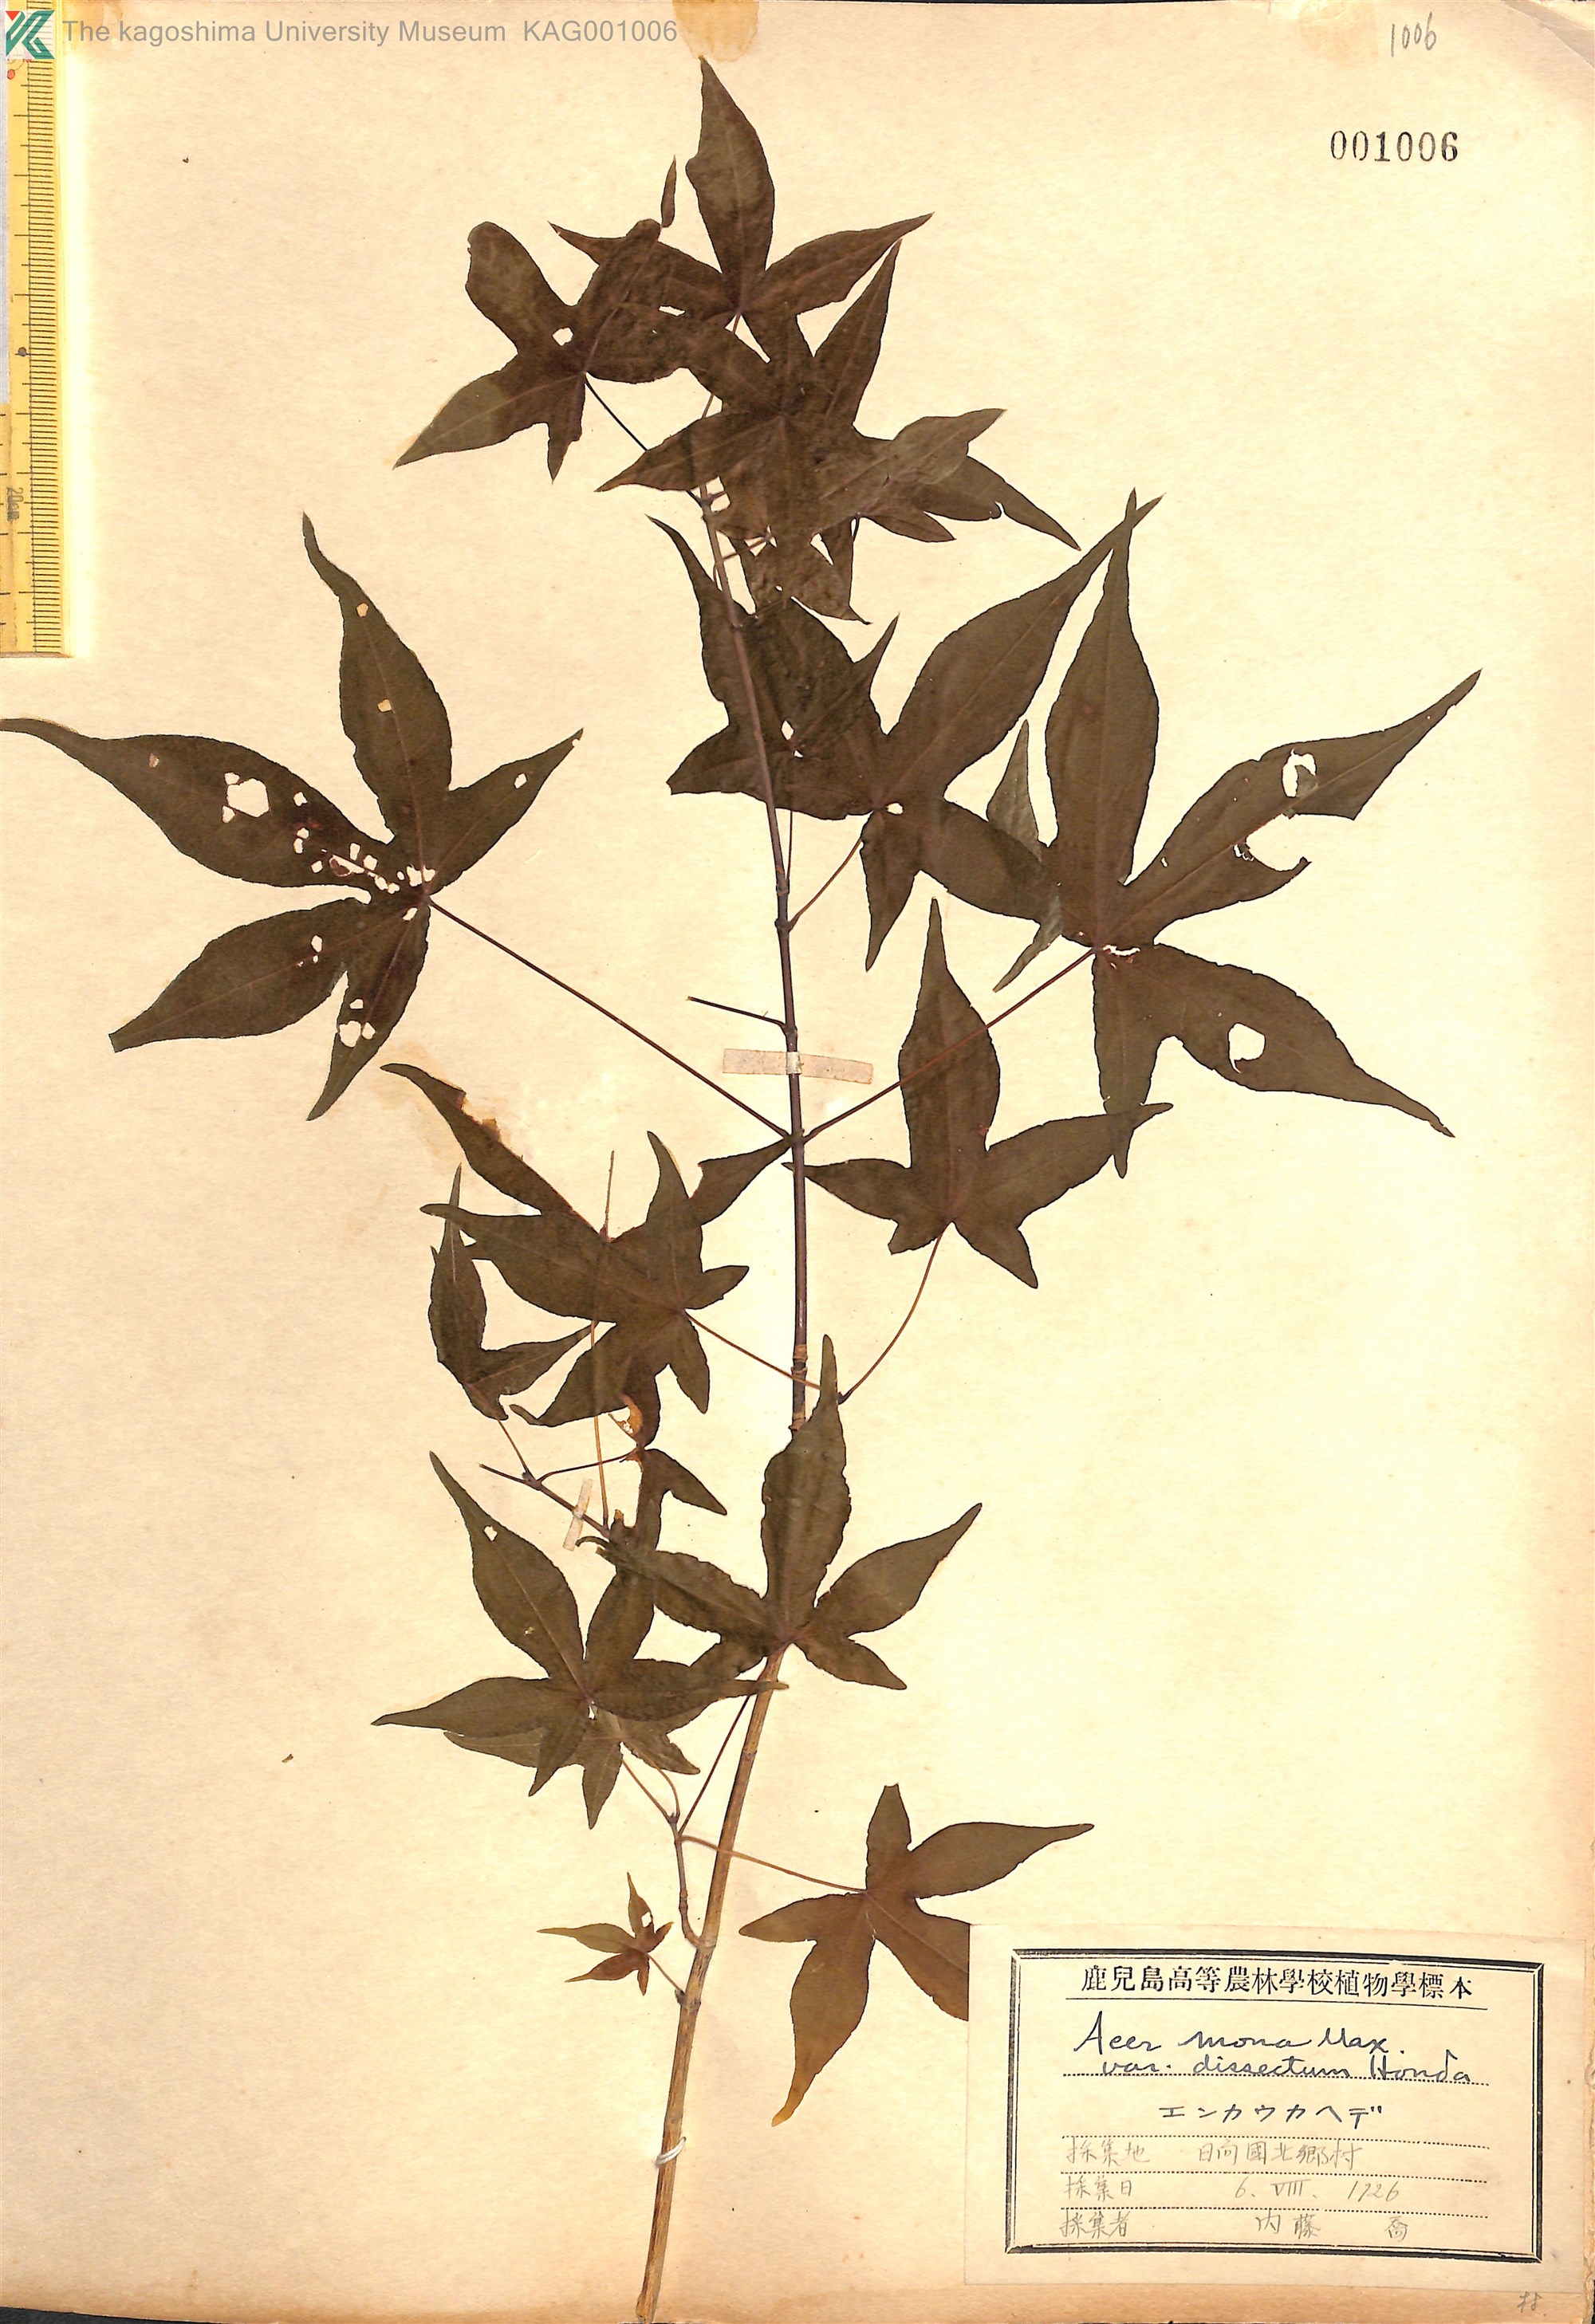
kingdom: Plantae
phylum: Tracheophyta
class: Magnoliopsida
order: Sapindales
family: Sapindaceae
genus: Acer
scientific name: Acer pictum
